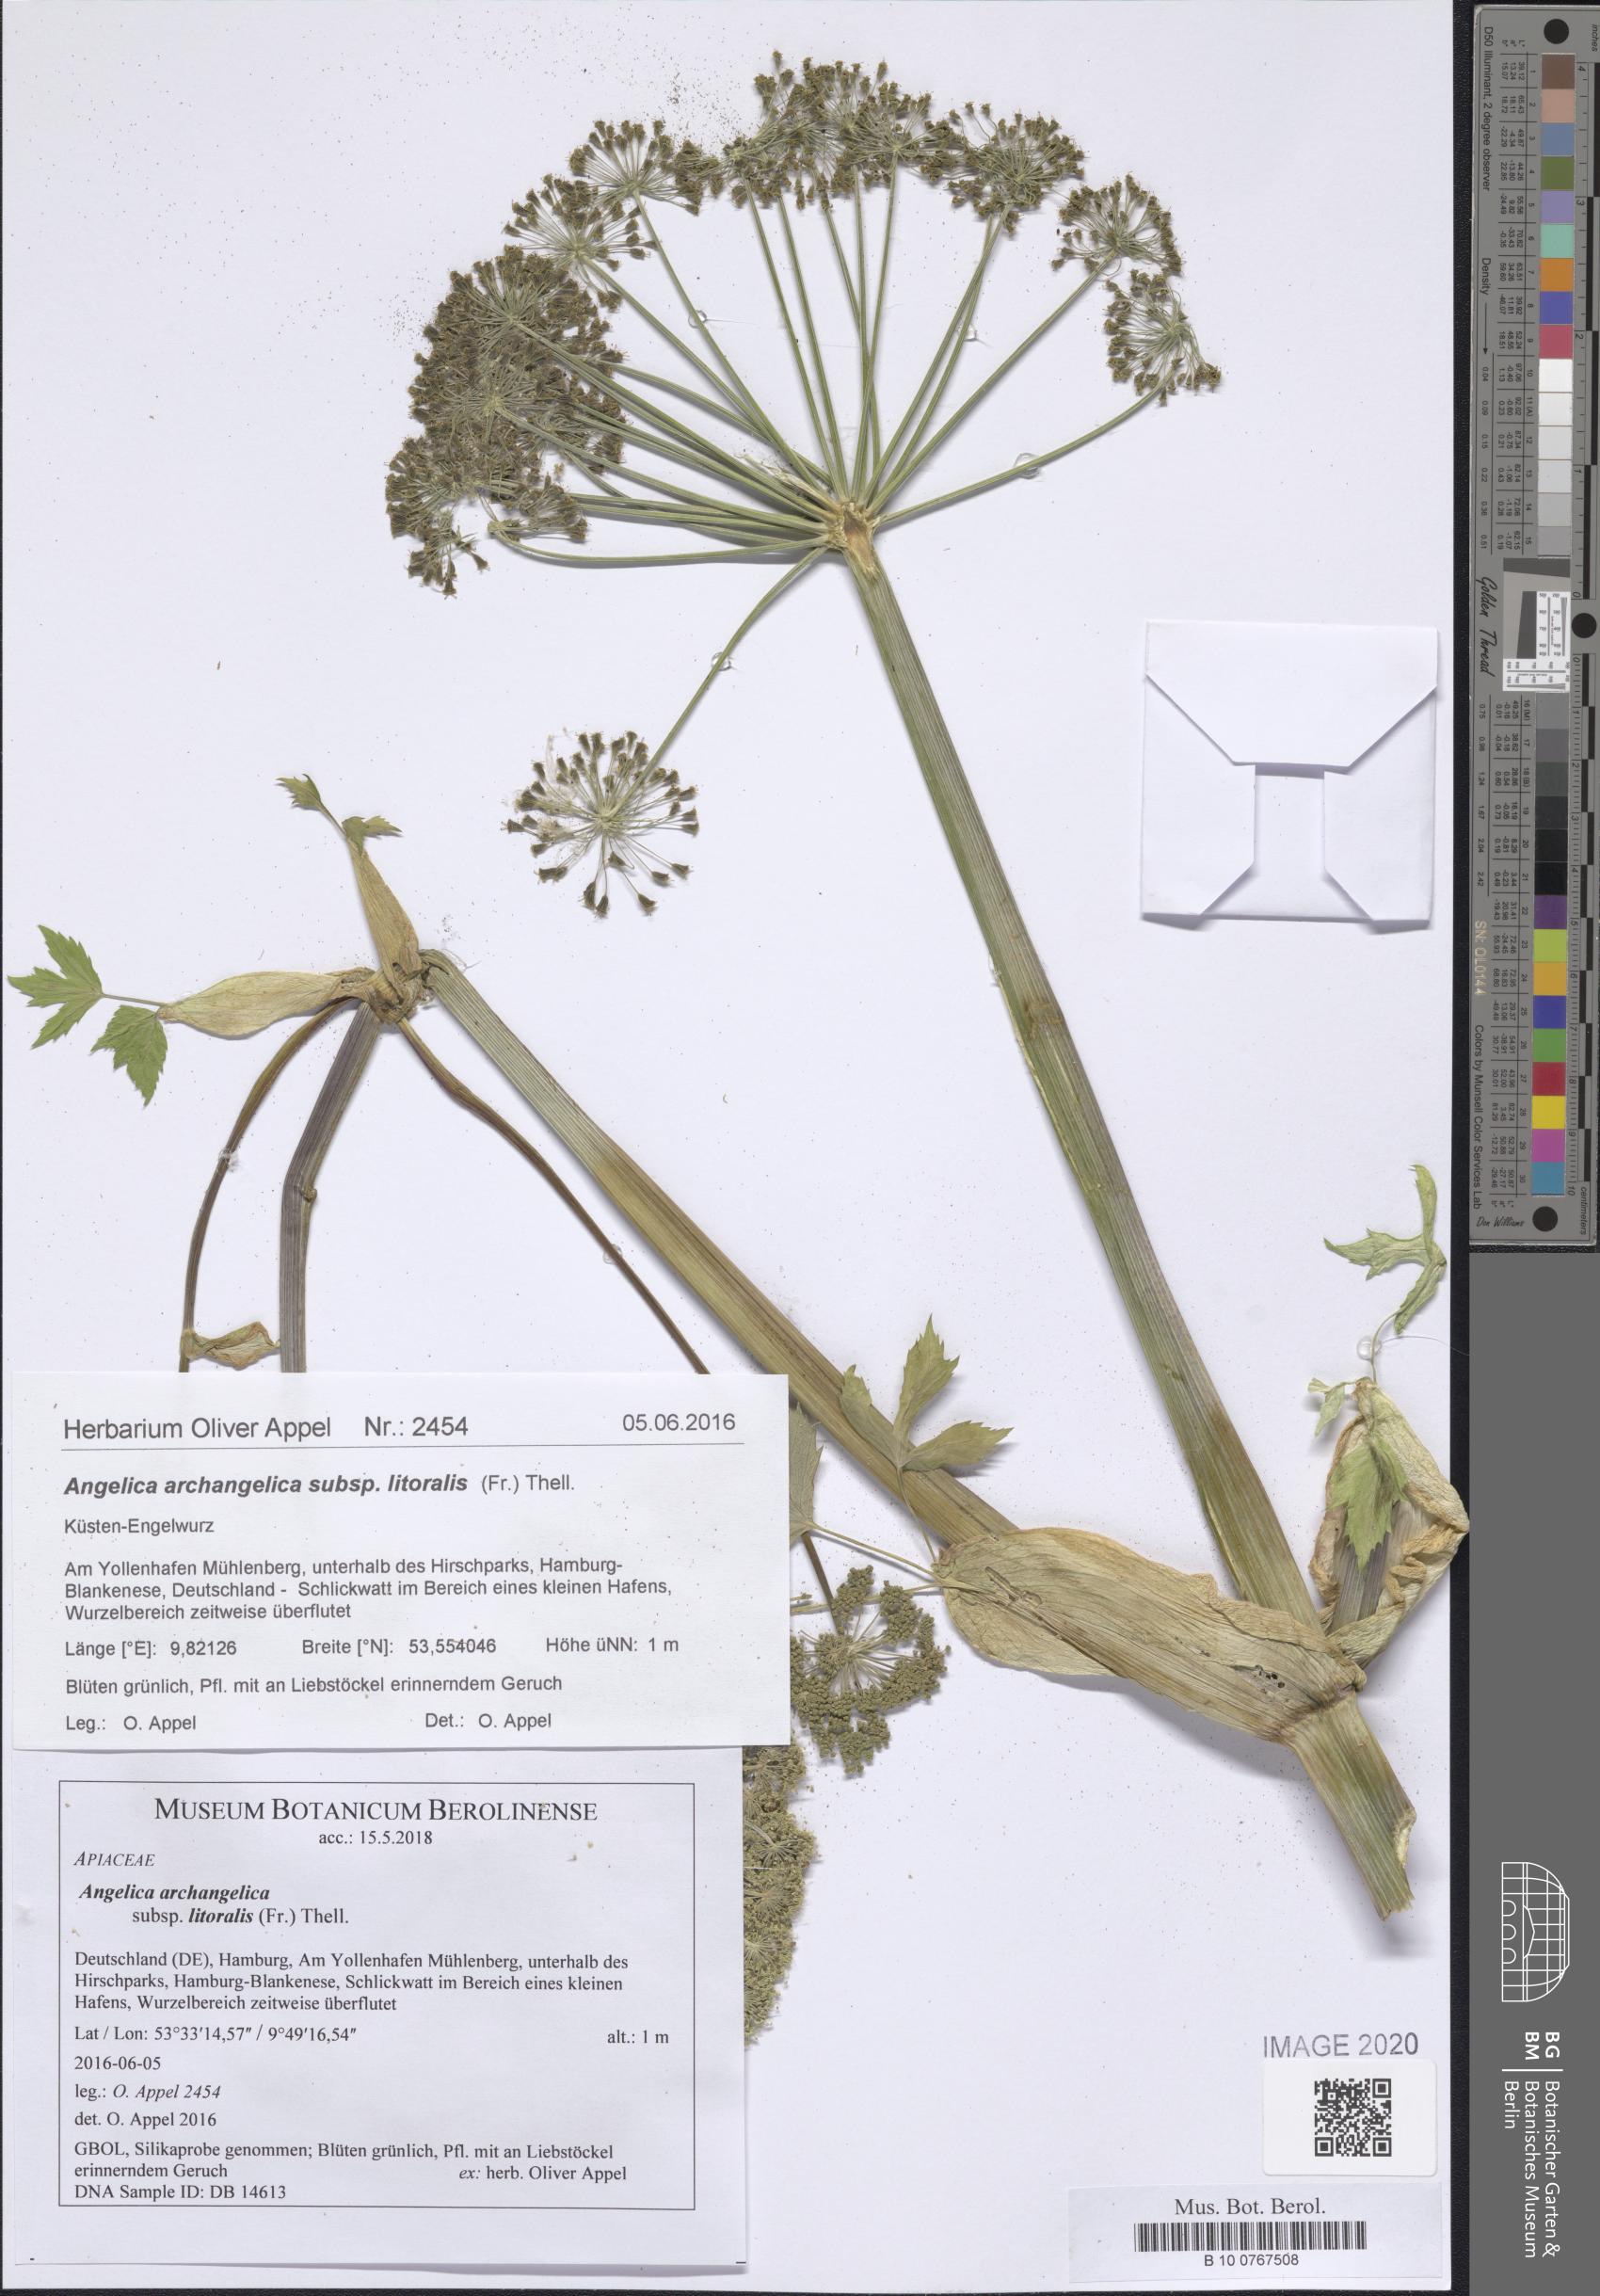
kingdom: Plantae
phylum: Tracheophyta
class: Magnoliopsida
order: Apiales
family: Apiaceae
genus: Angelica
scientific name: Angelica archangelica
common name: Garden angelica
